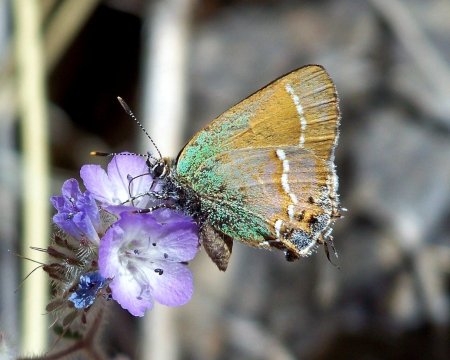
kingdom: Animalia
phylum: Arthropoda
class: Insecta
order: Lepidoptera
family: Lycaenidae
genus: Mitoura
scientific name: Mitoura gryneus
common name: Juniper Hairstreak
